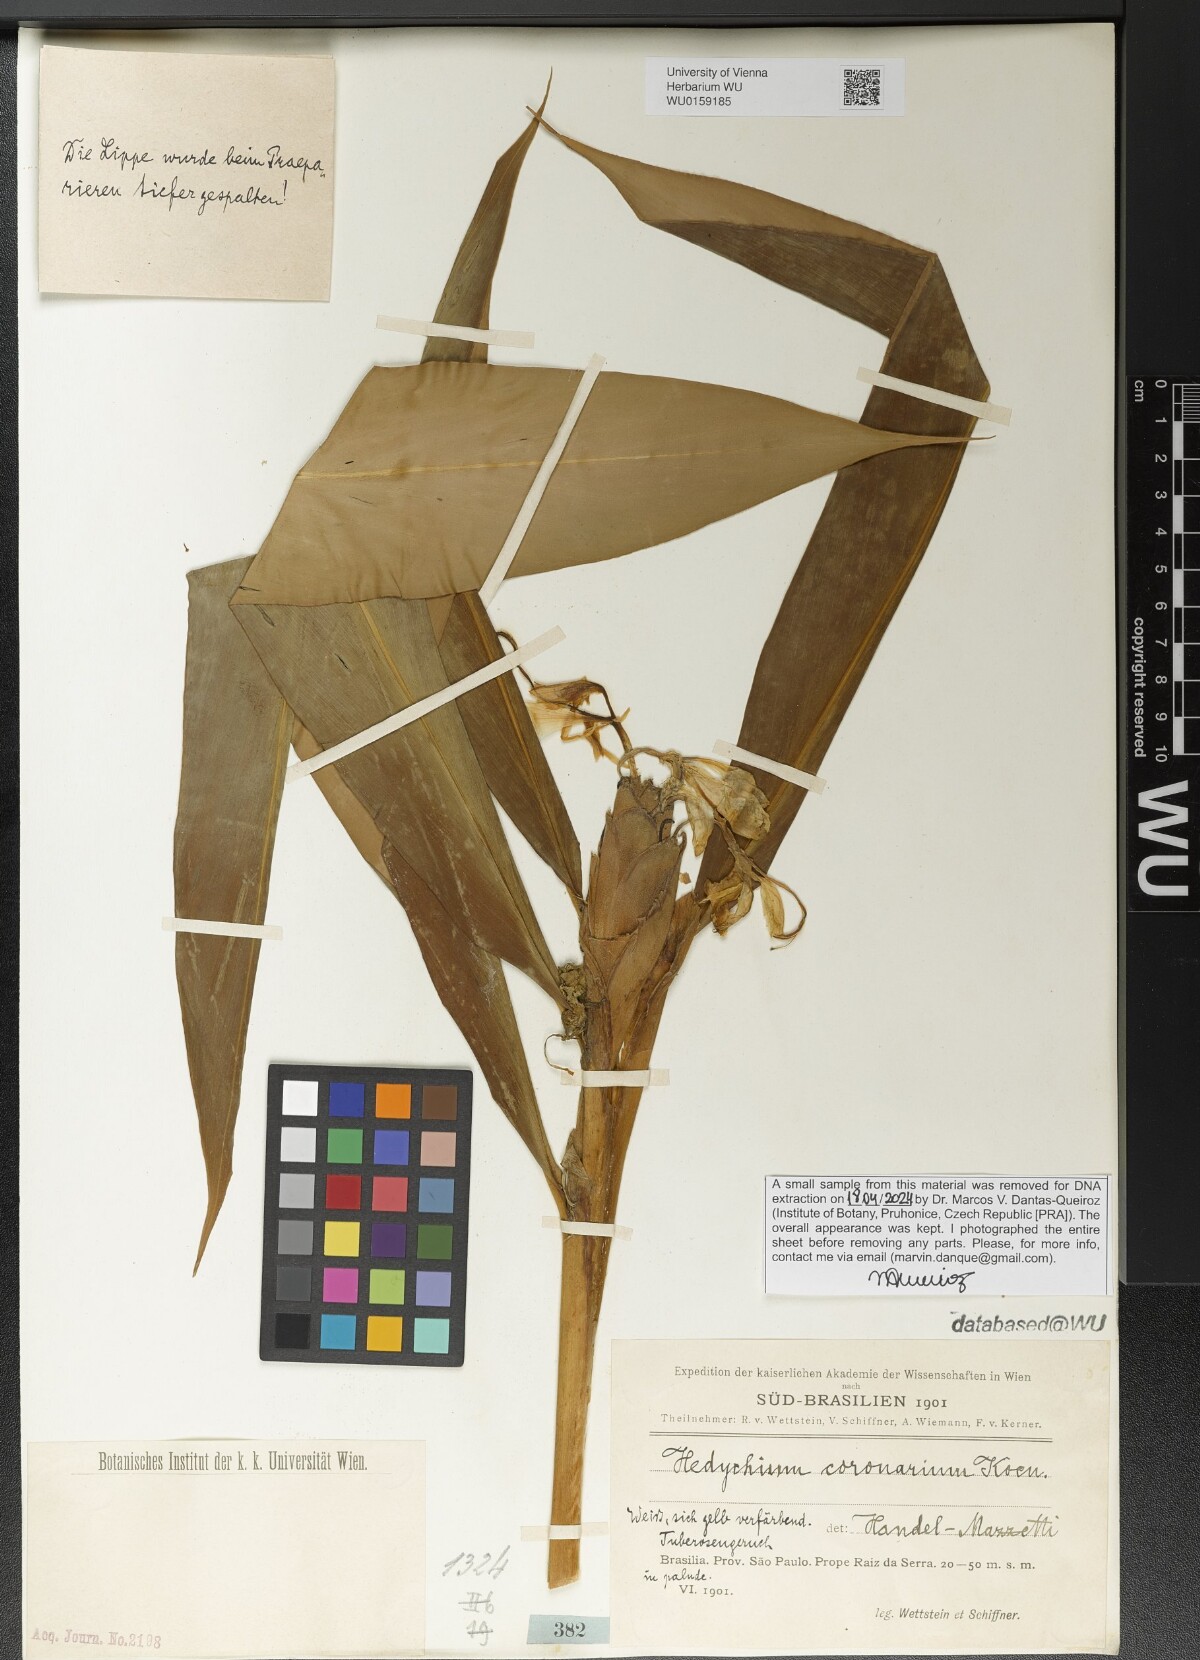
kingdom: Plantae
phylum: Tracheophyta
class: Liliopsida
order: Zingiberales
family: Zingiberaceae
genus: Hedychium
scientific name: Hedychium coronarium
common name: White garland-lily
